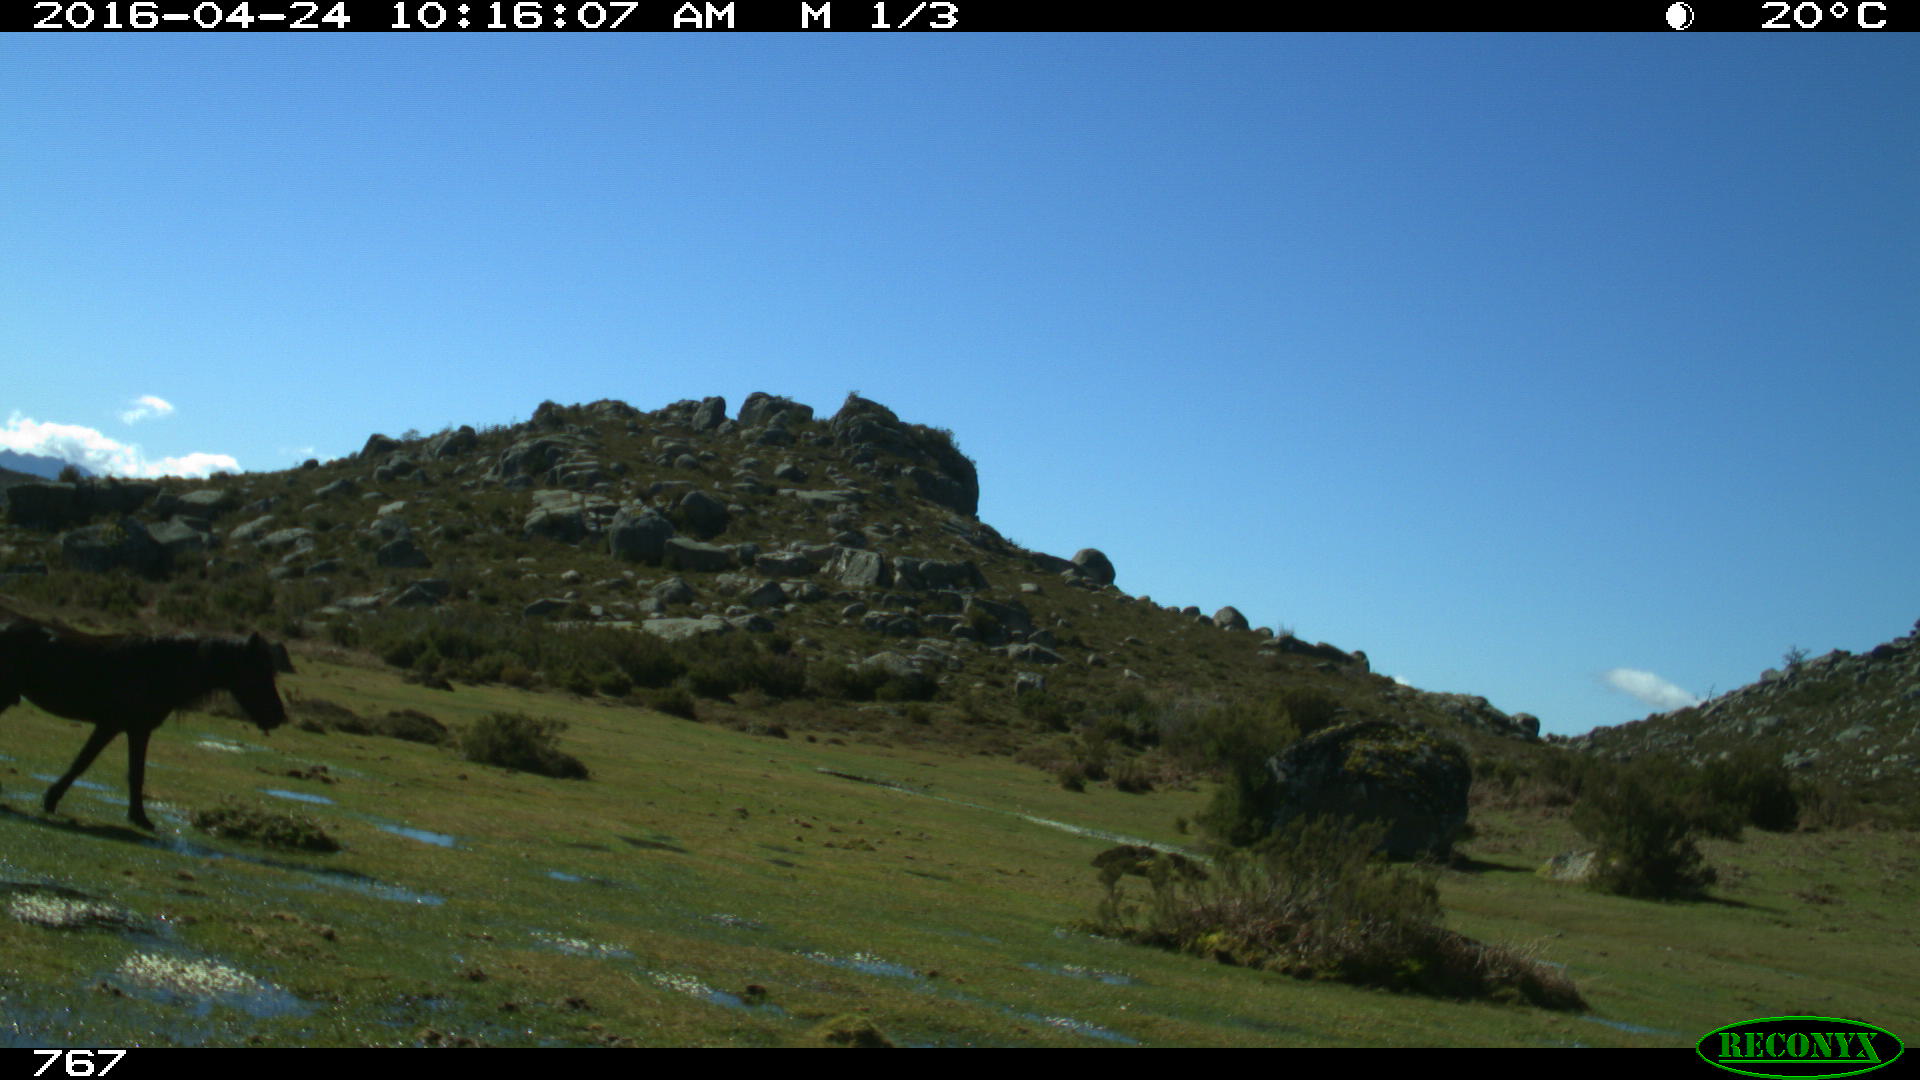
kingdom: Animalia
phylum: Chordata
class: Mammalia
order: Perissodactyla
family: Equidae
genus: Equus
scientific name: Equus caballus
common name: Horse
